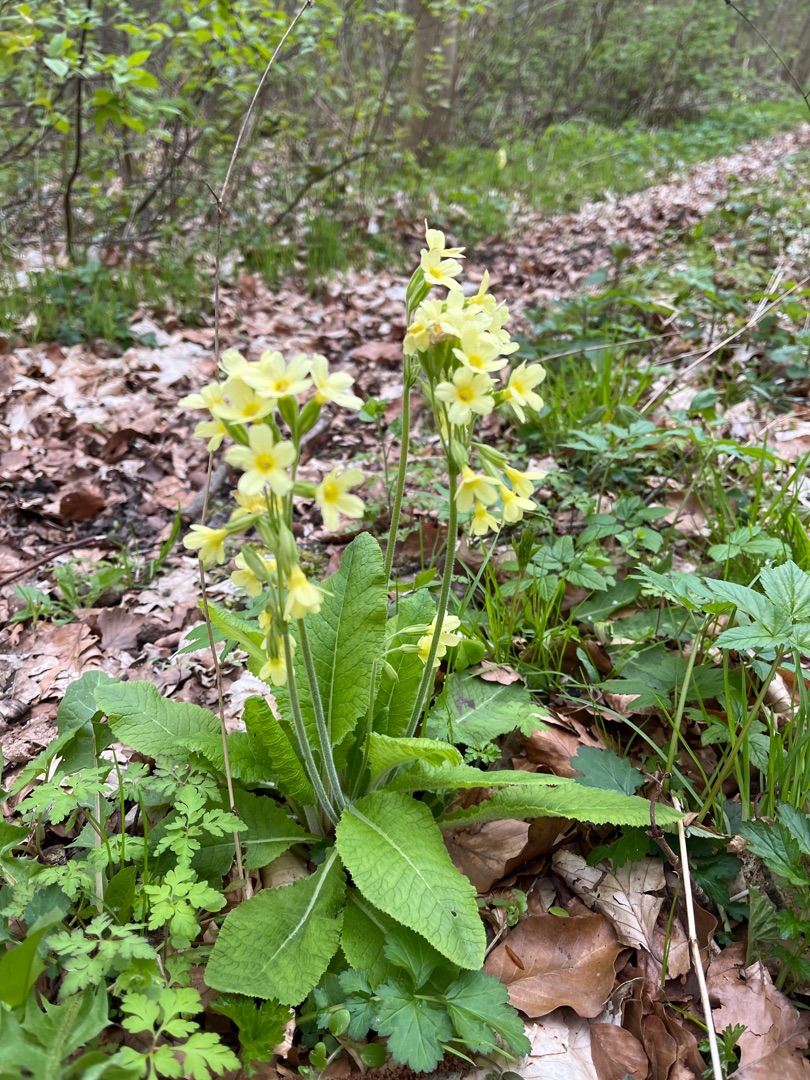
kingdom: Plantae
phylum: Tracheophyta
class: Magnoliopsida
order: Ericales
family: Primulaceae
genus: Primula
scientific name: Primula elatior
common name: Fladkravet kodriver
